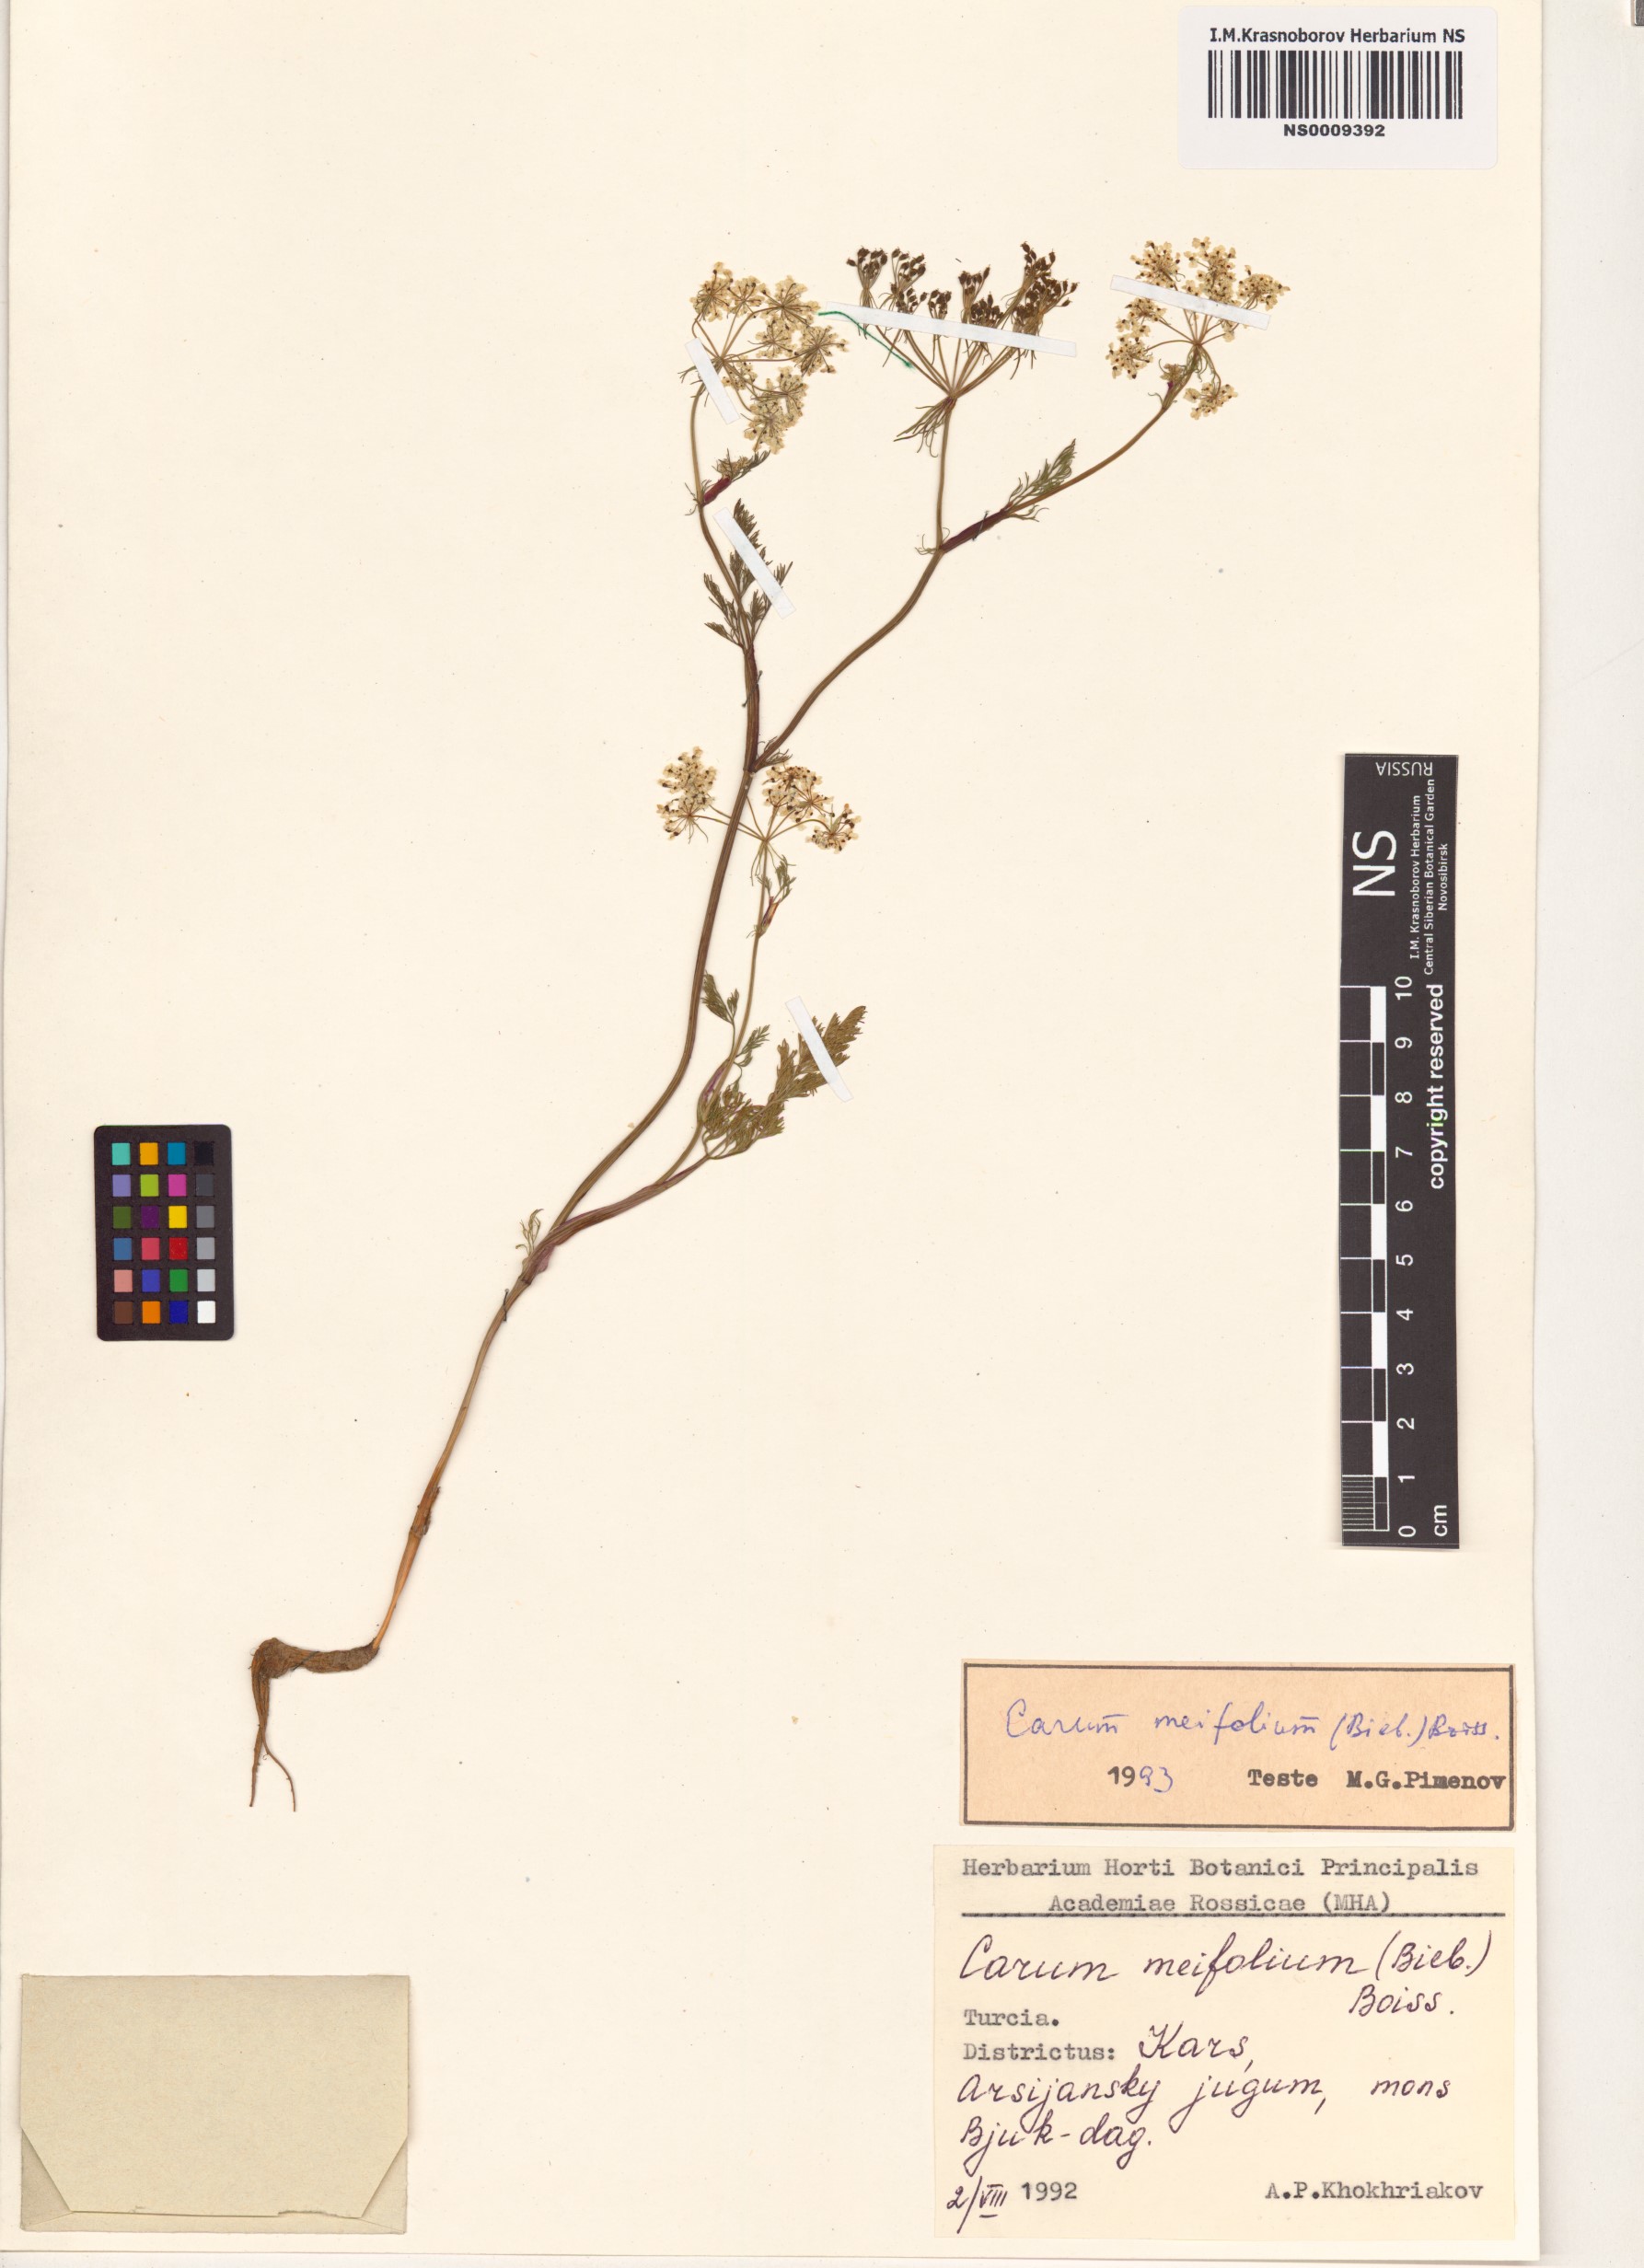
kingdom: Plantae
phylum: Tracheophyta
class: Magnoliopsida
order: Apiales
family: Apiaceae
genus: Carum
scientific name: Carum meifolium
